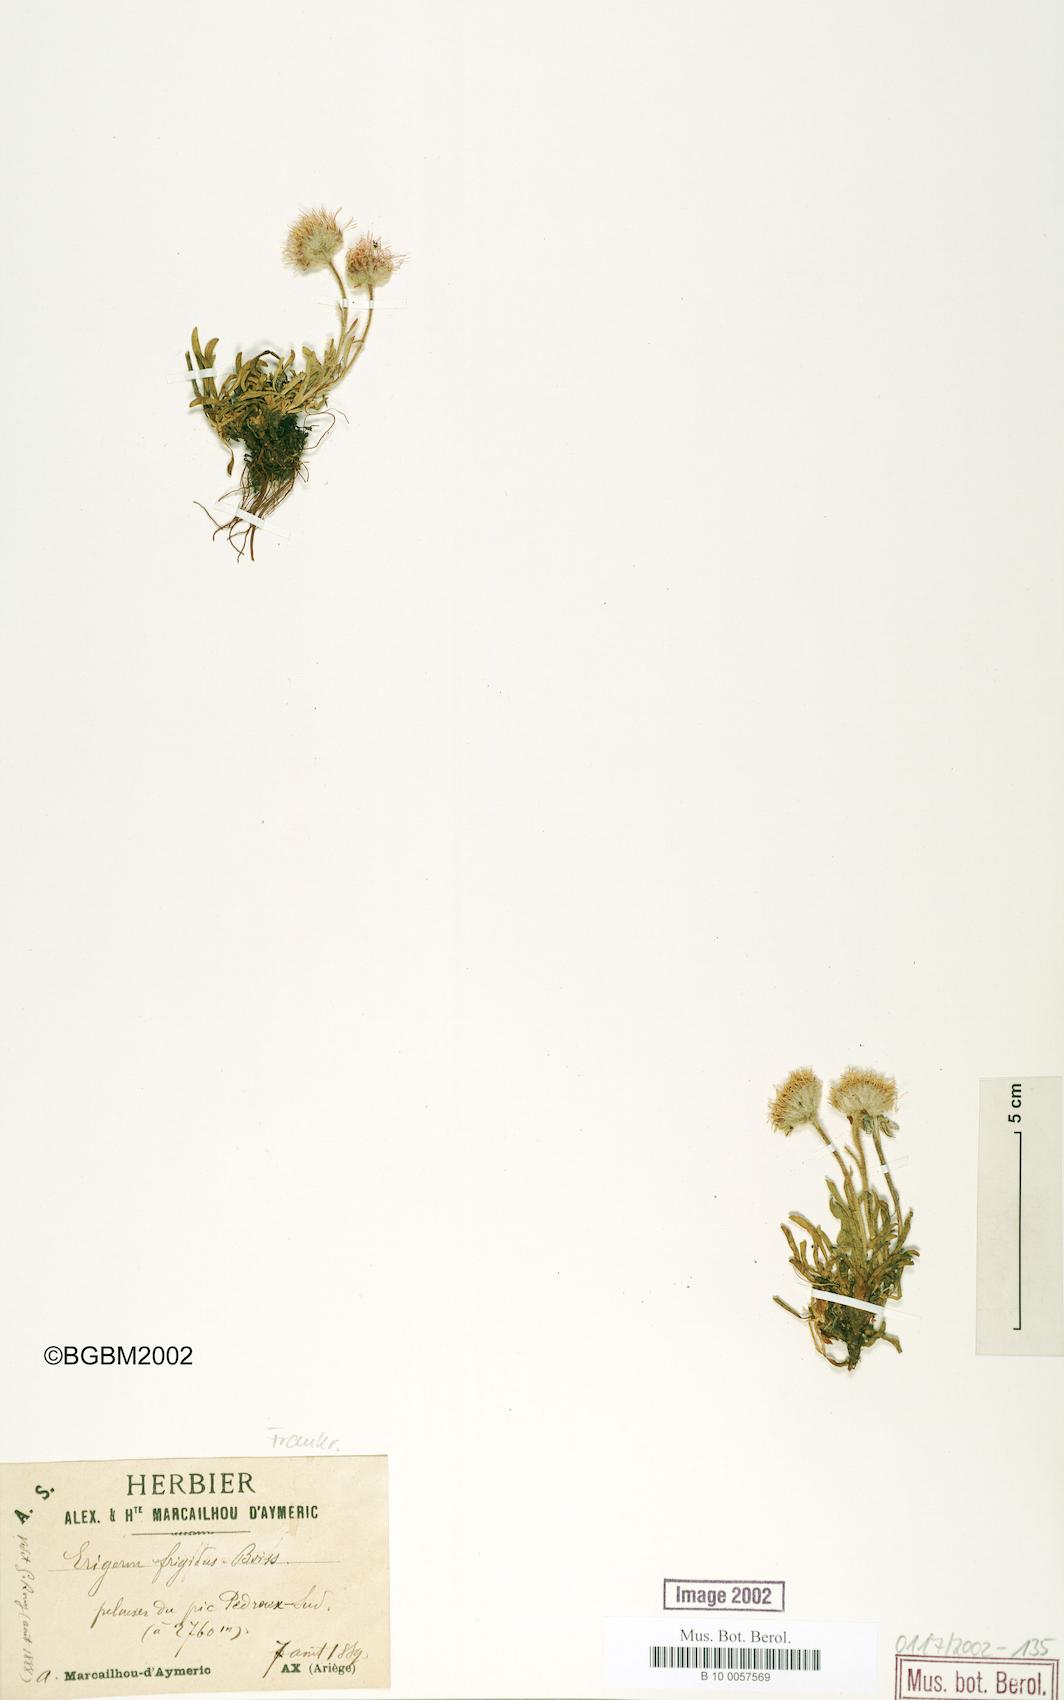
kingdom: Plantae
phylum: Tracheophyta
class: Magnoliopsida
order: Asterales
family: Asteraceae
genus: Erigeron
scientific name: Erigeron aragonensis
